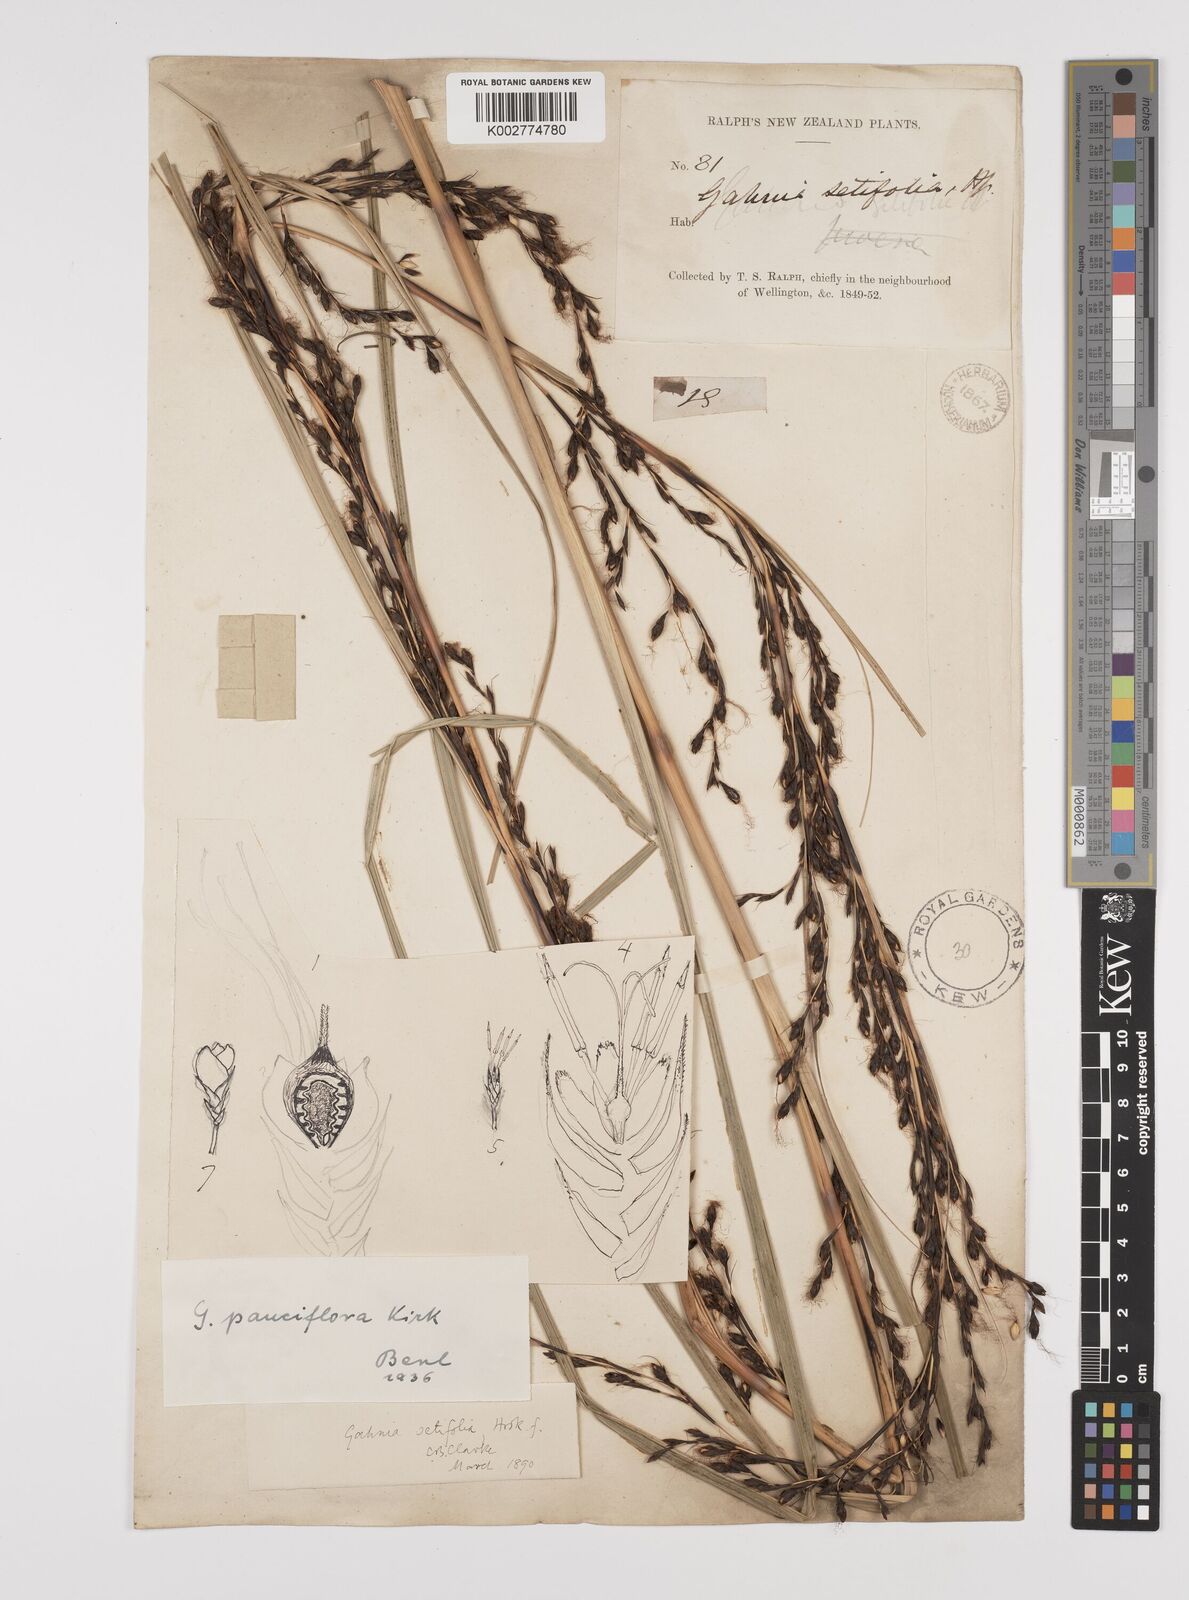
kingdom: Plantae
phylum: Tracheophyta
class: Liliopsida
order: Poales
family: Cyperaceae
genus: Gahnia
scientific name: Gahnia pauciflora
